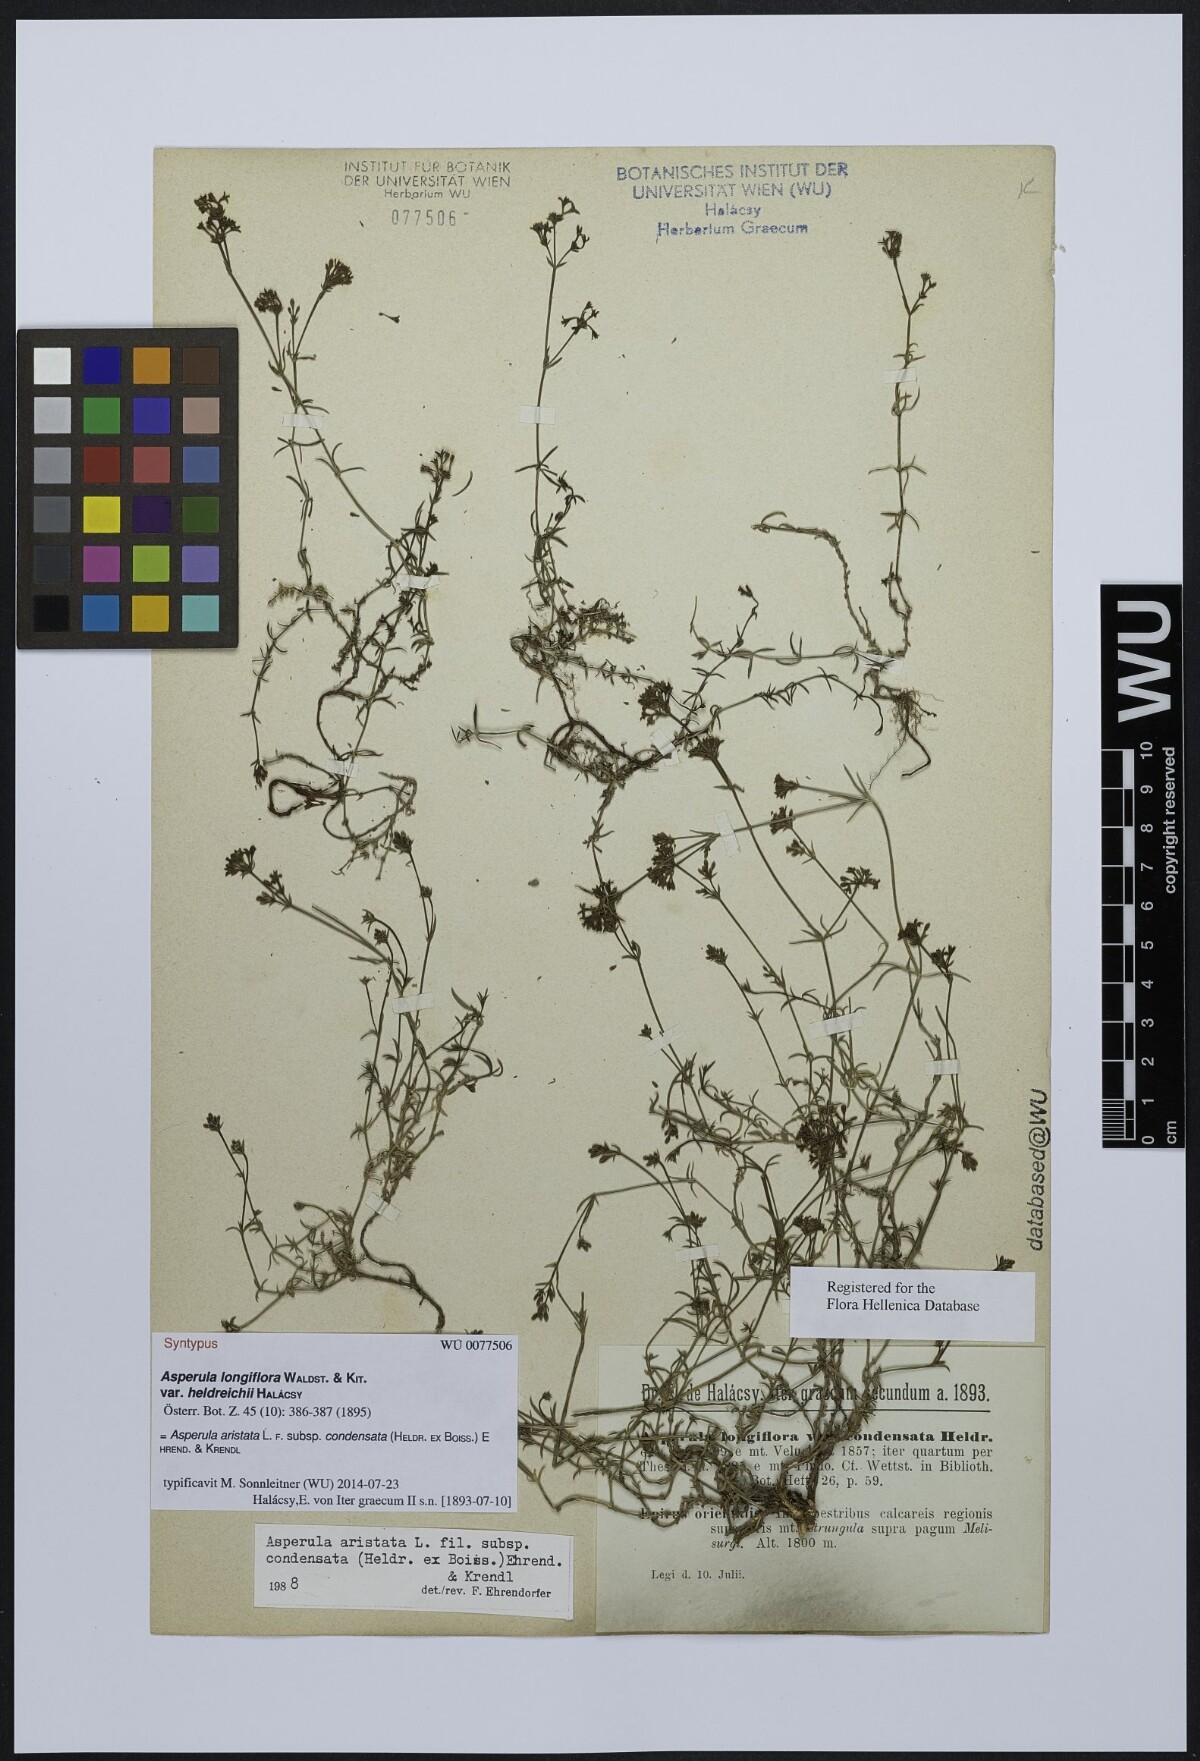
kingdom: Plantae
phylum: Tracheophyta
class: Magnoliopsida
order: Gentianales
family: Rubiaceae
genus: Asperula
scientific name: Asperula longiflora
